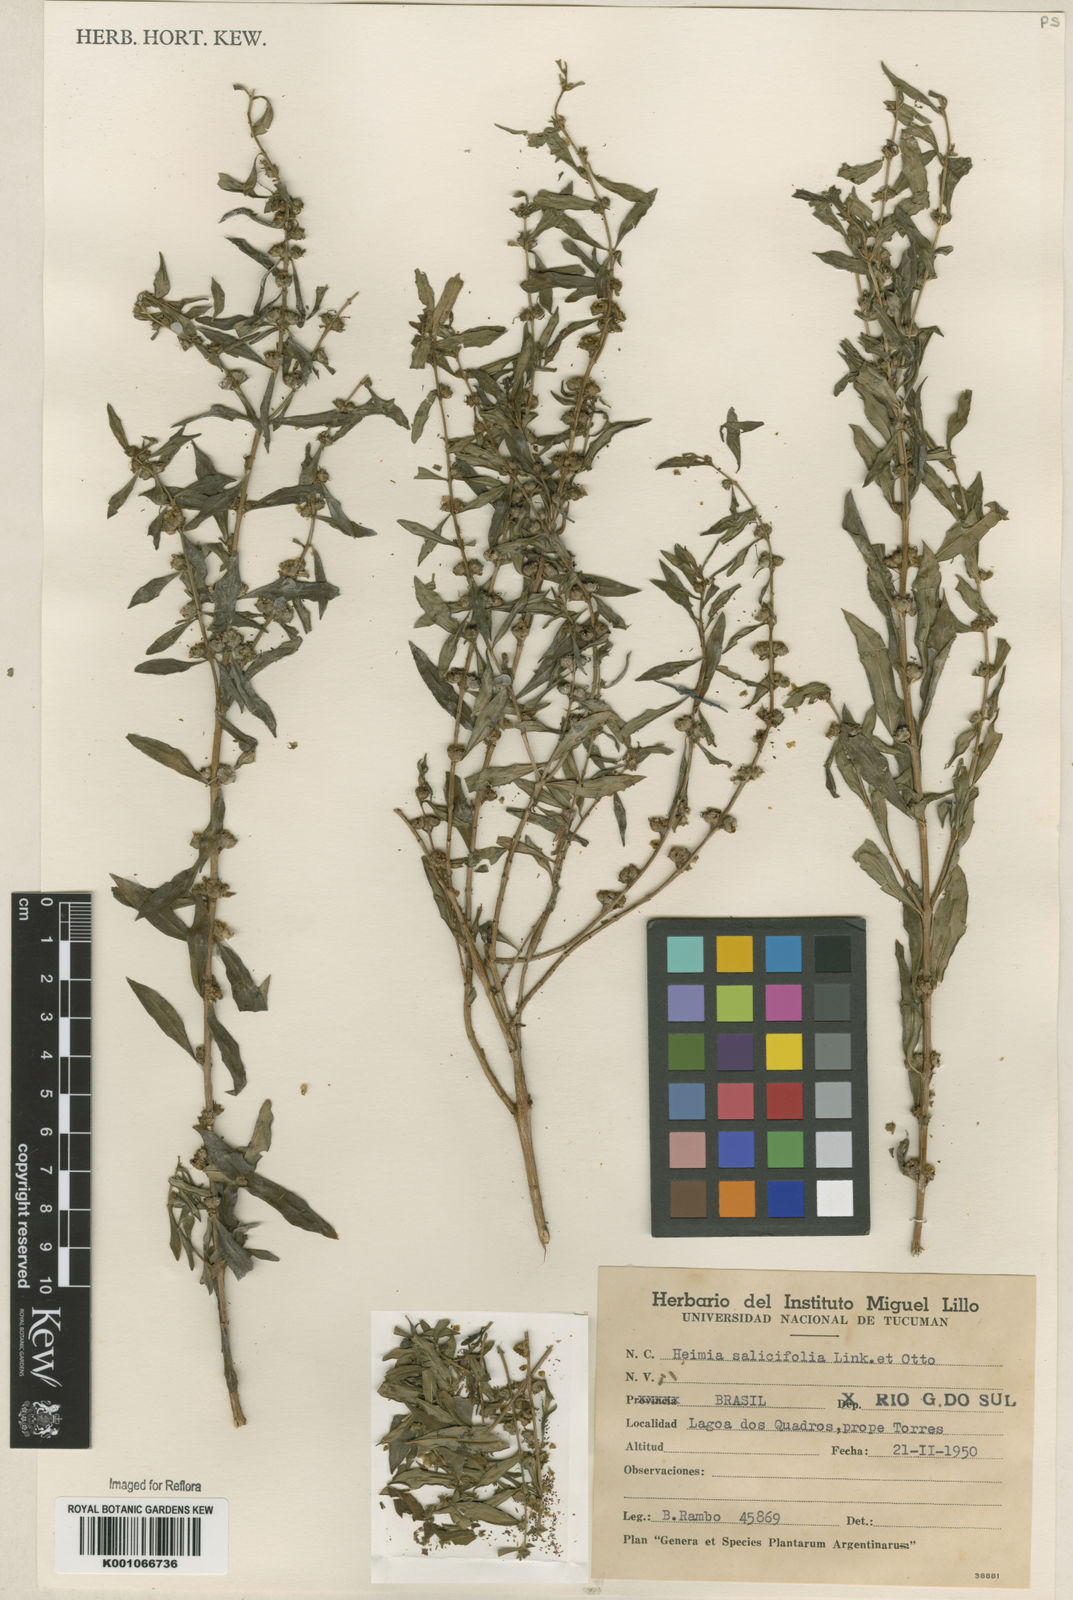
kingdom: Plantae
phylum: Tracheophyta
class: Magnoliopsida
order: Myrtales
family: Lythraceae
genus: Heimia
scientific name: Heimia salicifolia
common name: Willow-leaf heimia
